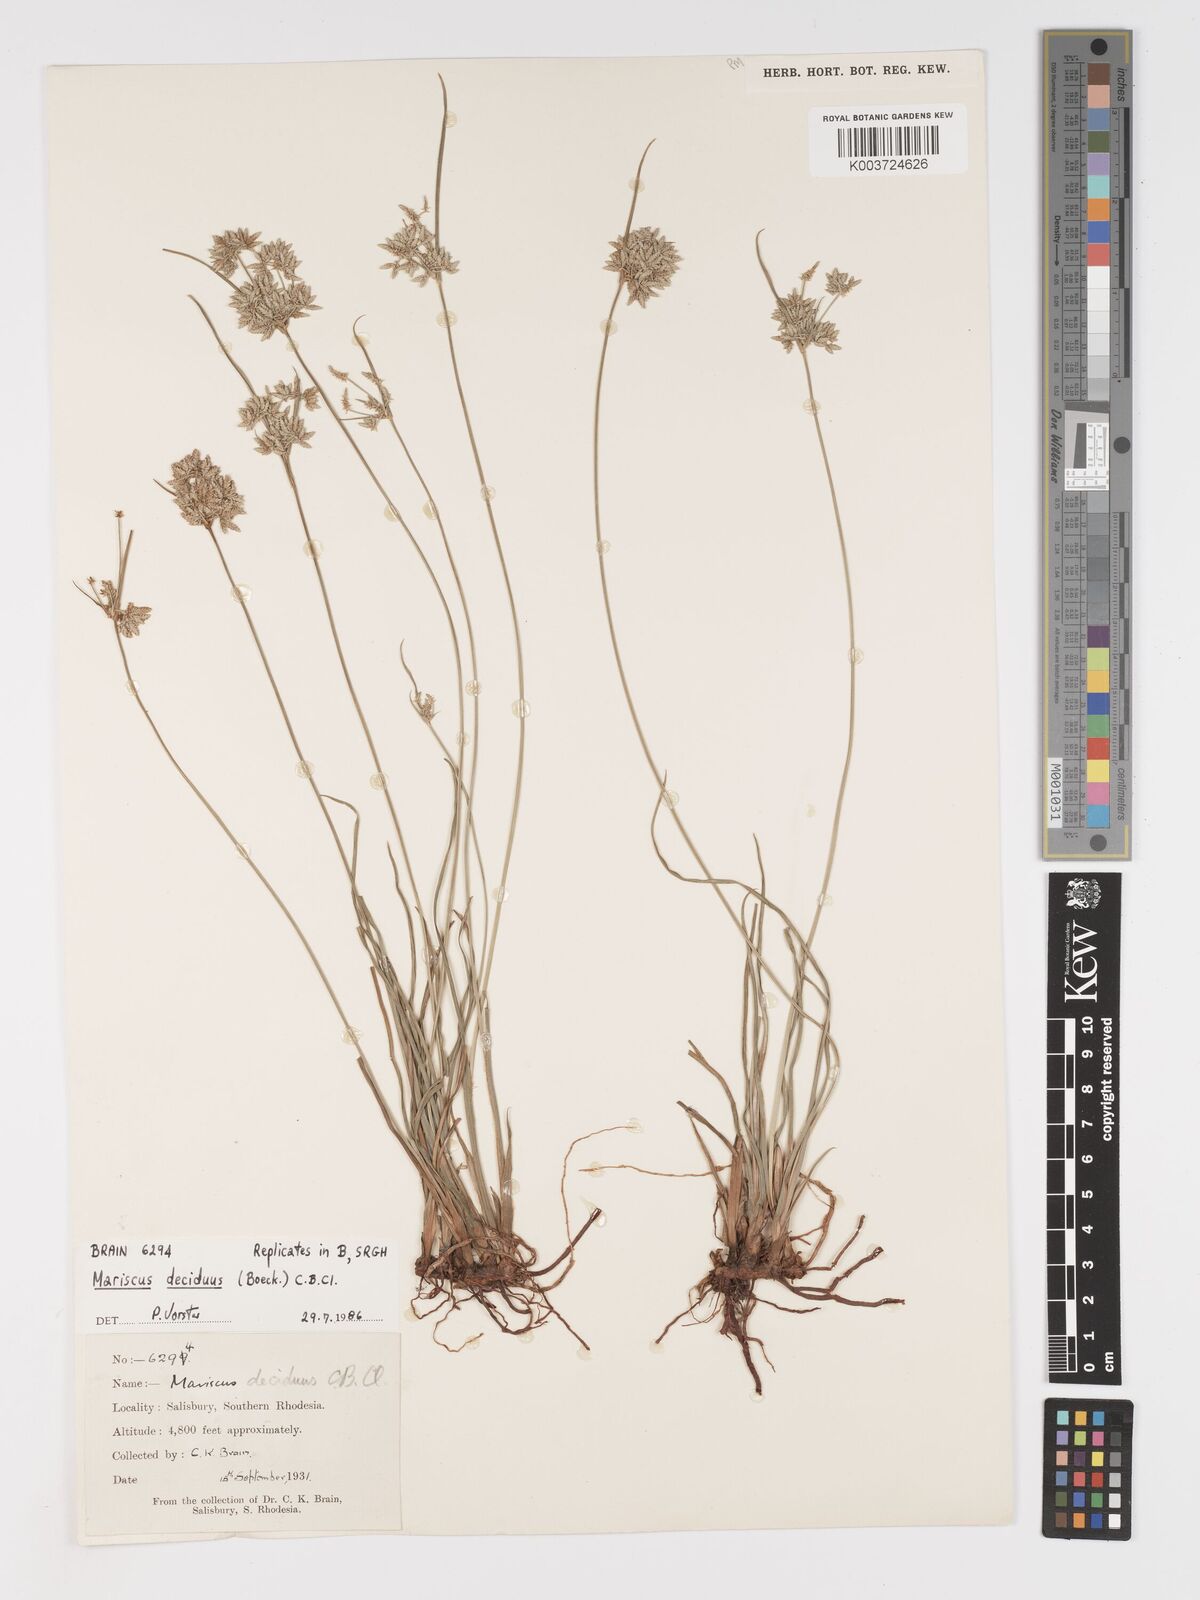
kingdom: Plantae
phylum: Tracheophyta
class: Liliopsida
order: Poales
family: Cyperaceae
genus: Cyperus
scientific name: Cyperus deciduus
